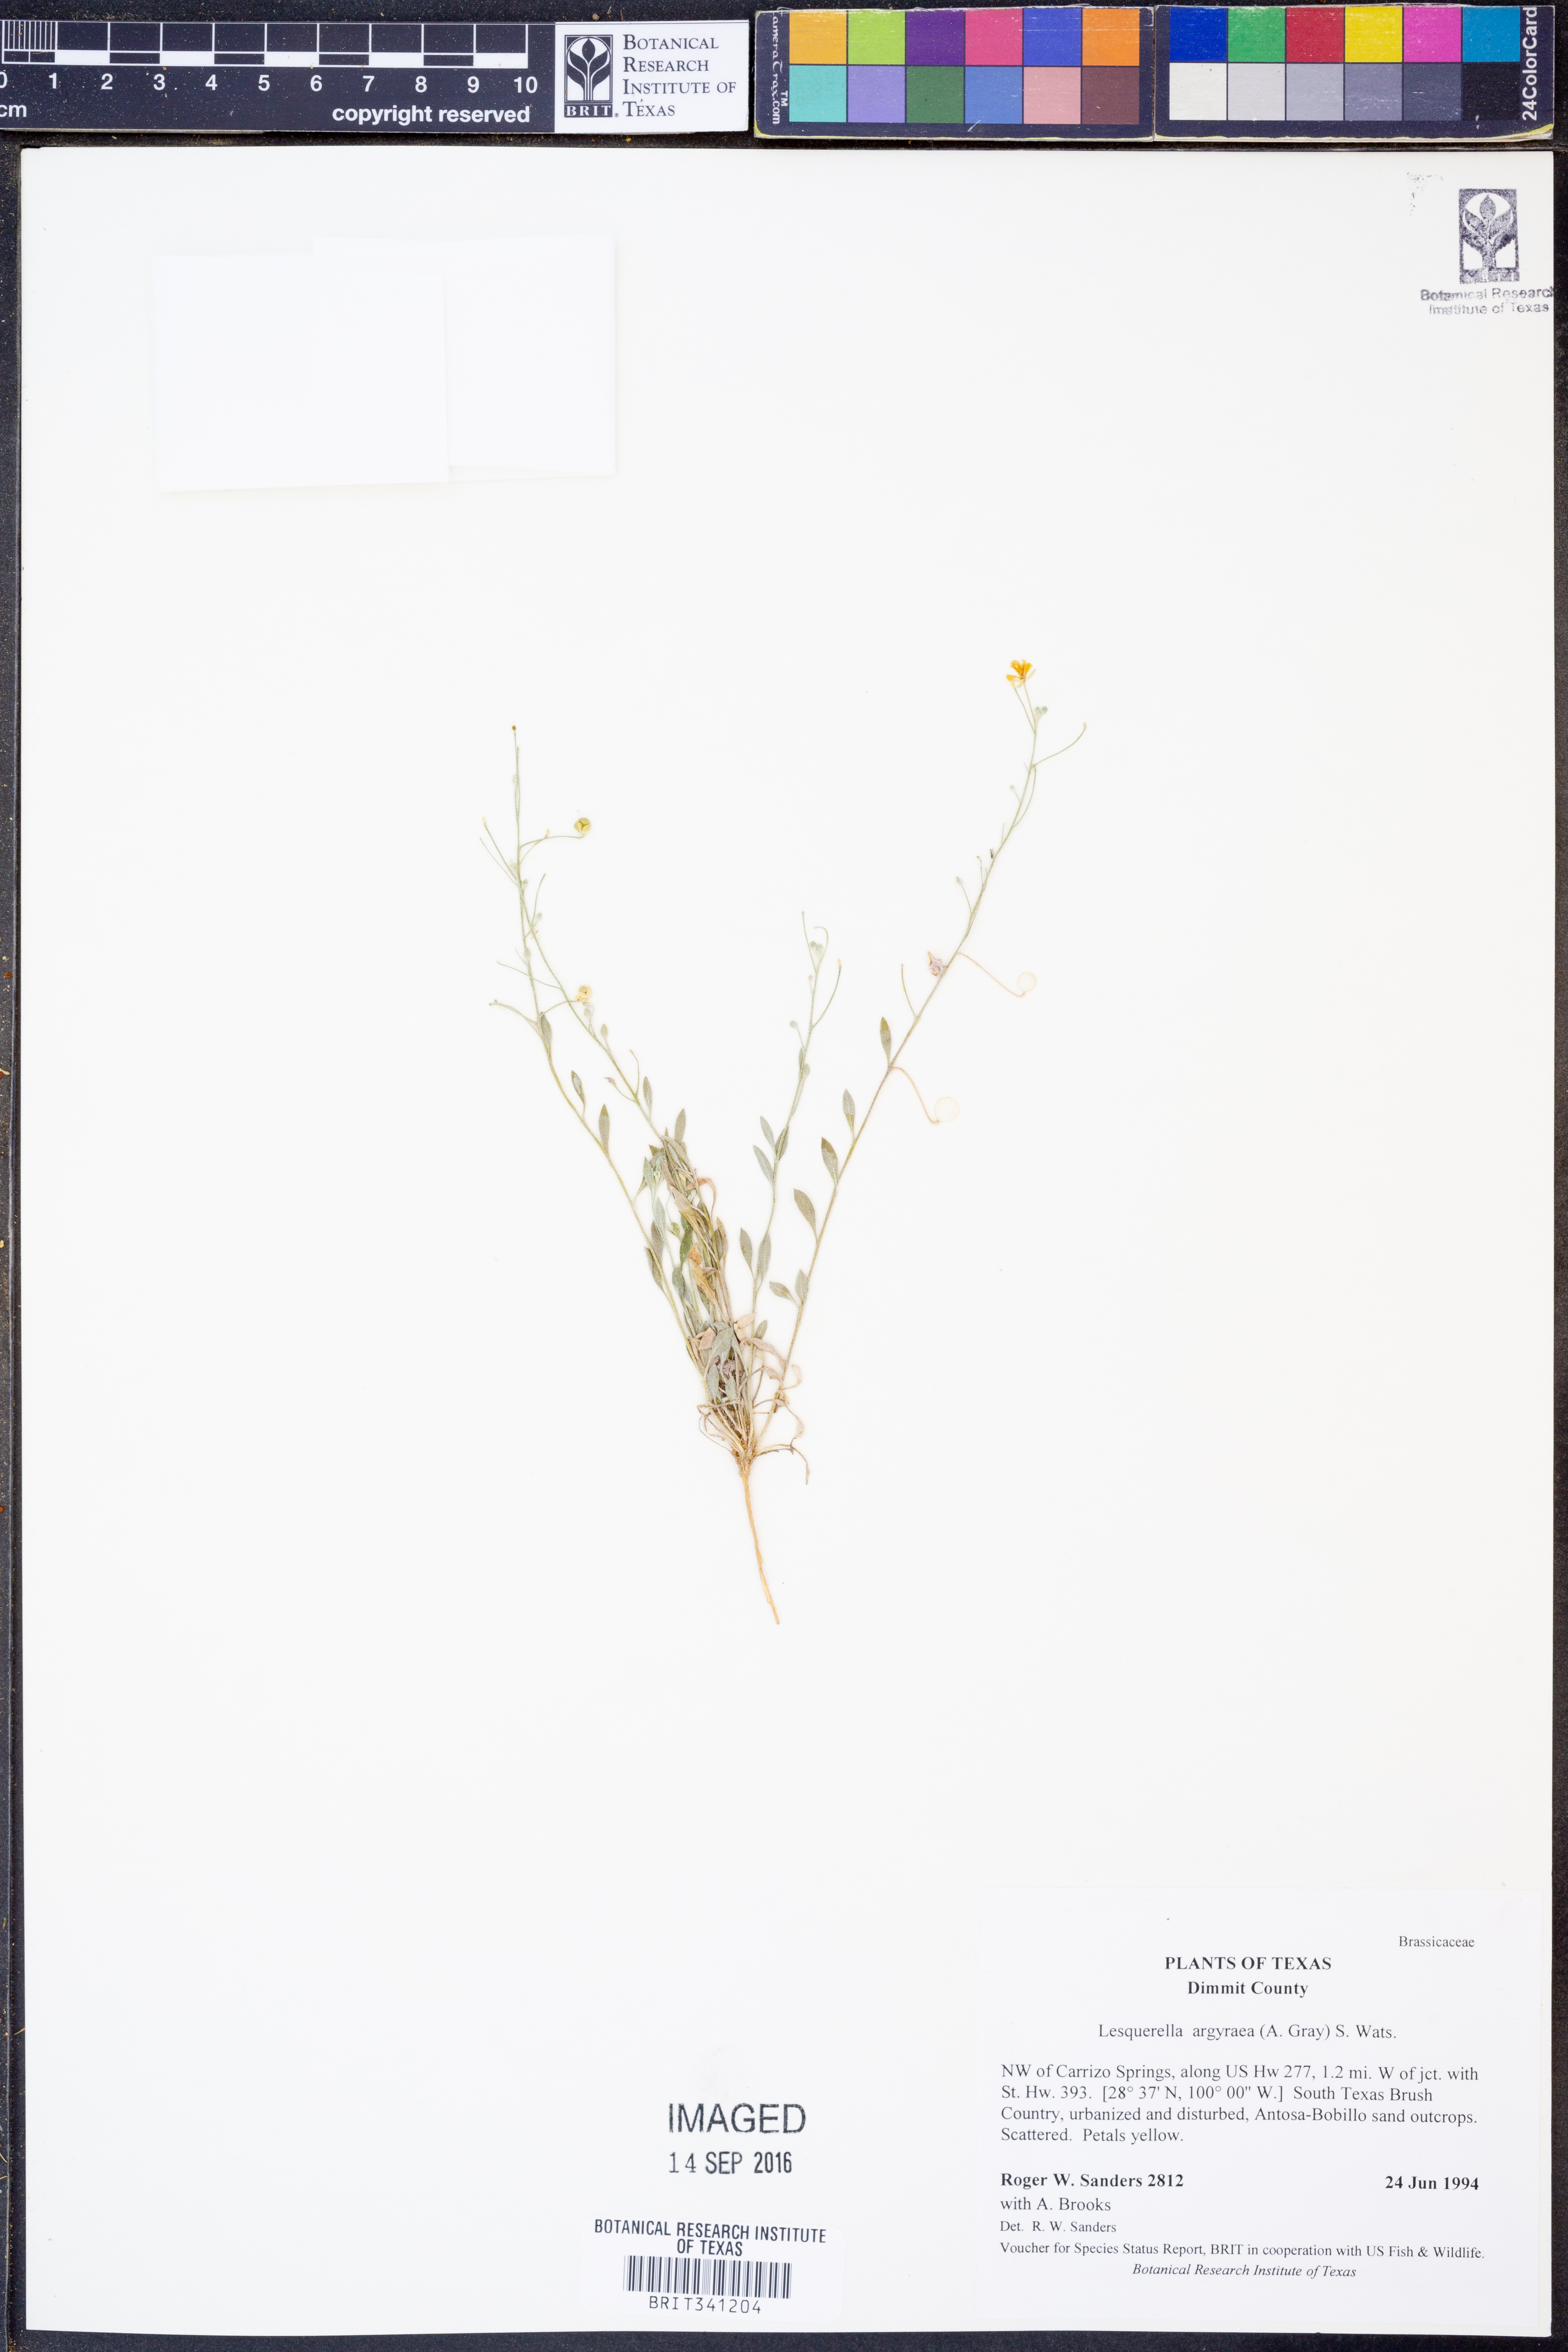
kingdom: Plantae
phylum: Tracheophyta
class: Magnoliopsida
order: Brassicales
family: Brassicaceae
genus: Physaria
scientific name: Physaria argyraea
